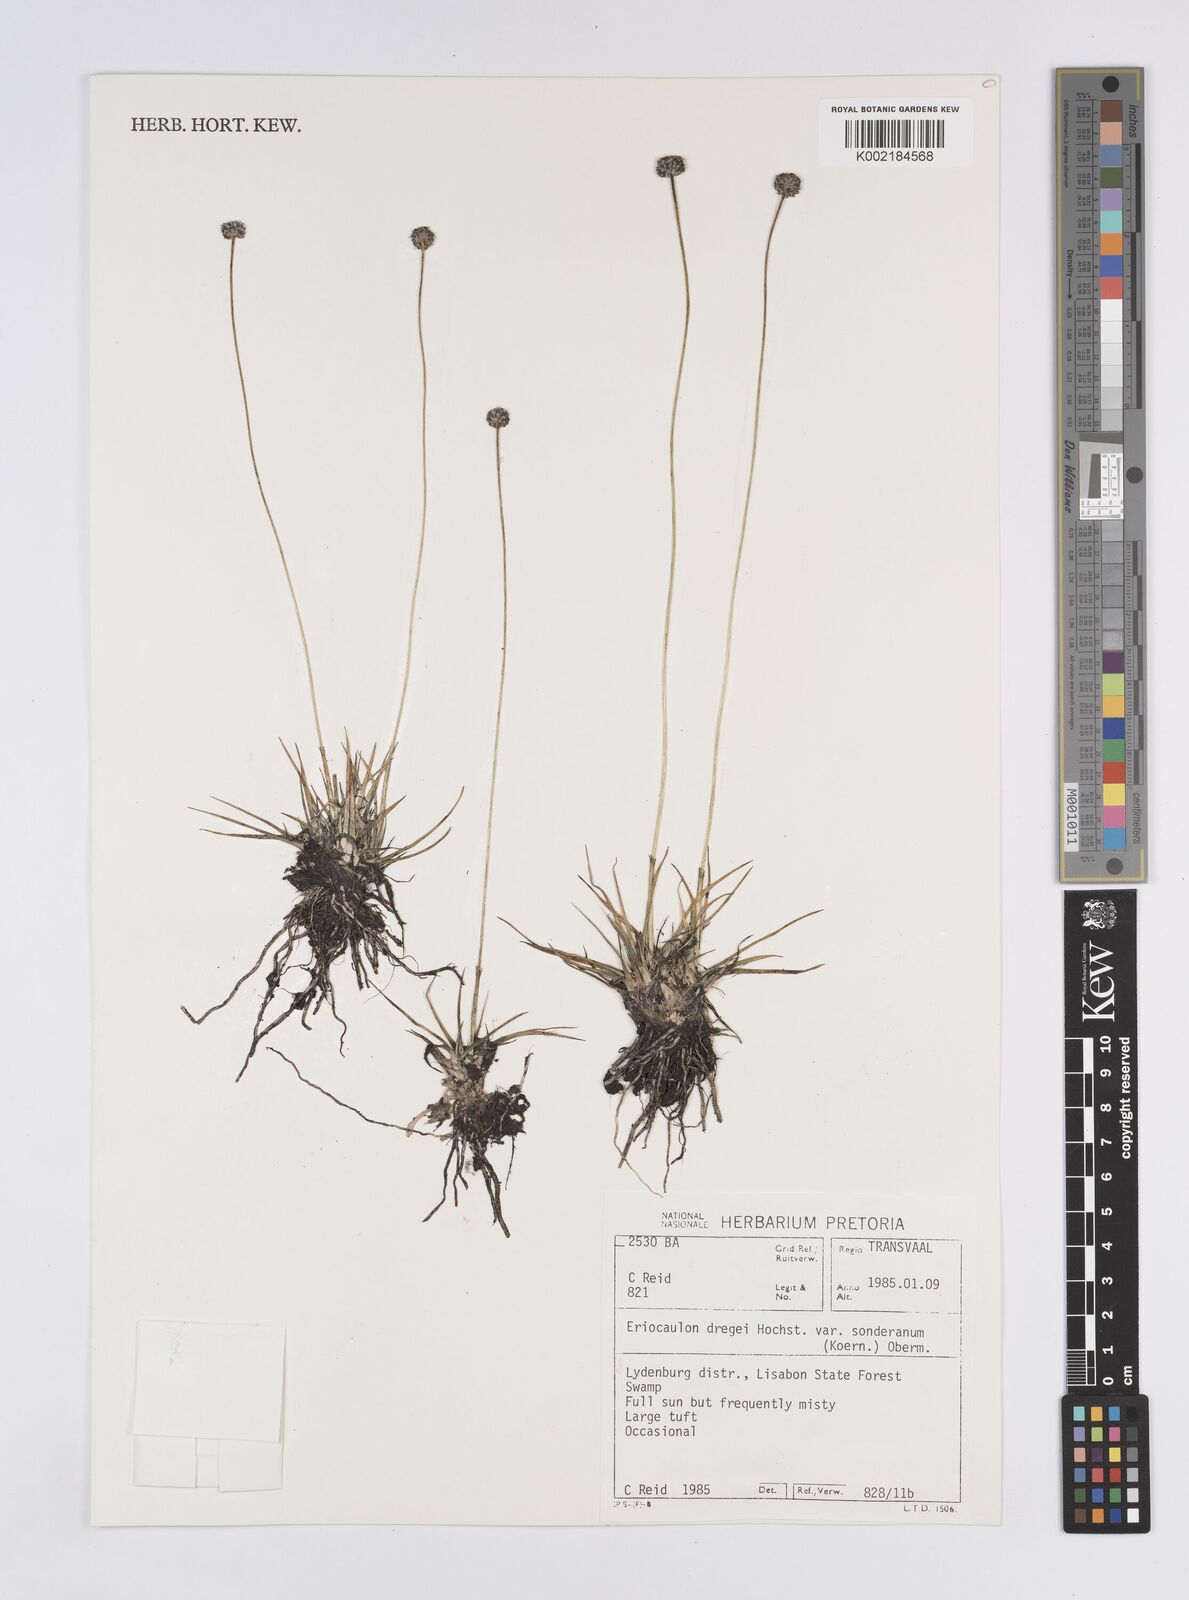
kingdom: Plantae
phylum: Tracheophyta
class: Liliopsida
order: Poales
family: Eriocaulaceae
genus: Eriocaulon
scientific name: Eriocaulon sonderianum
